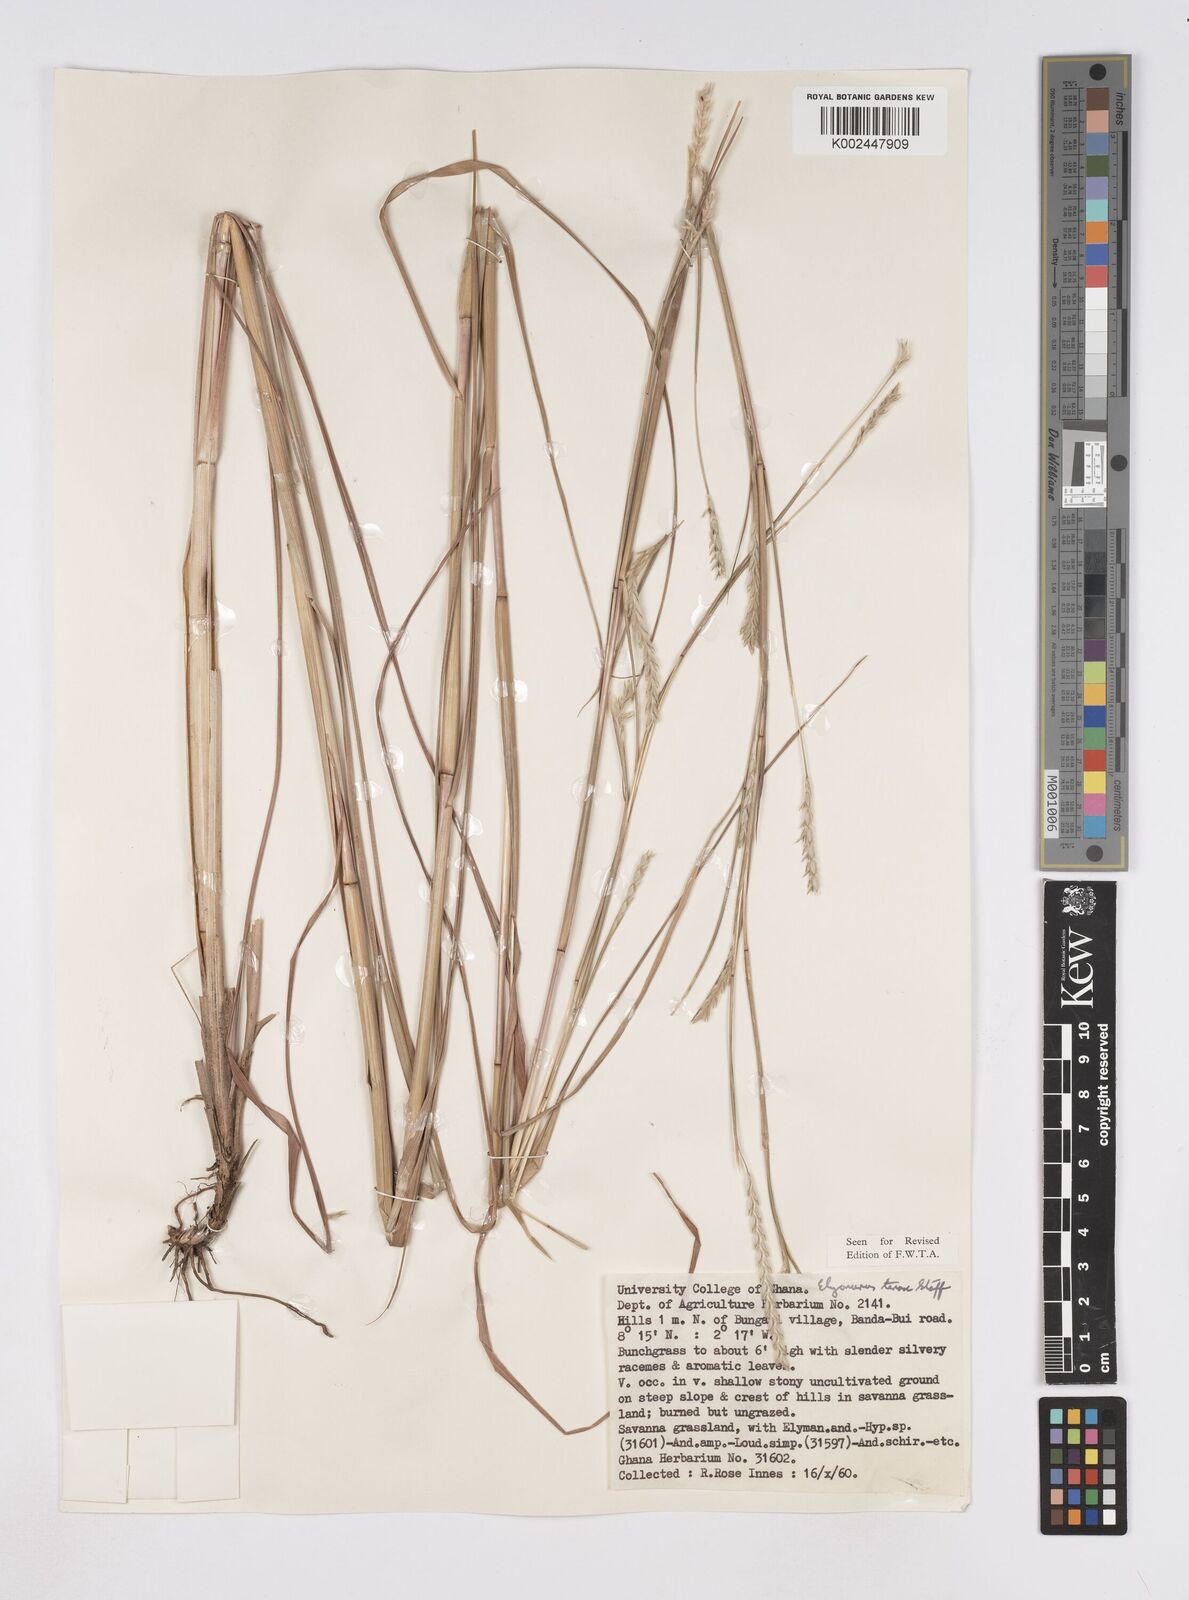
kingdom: Plantae
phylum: Tracheophyta
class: Liliopsida
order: Poales
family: Poaceae
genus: Elionurus
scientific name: Elionurus
